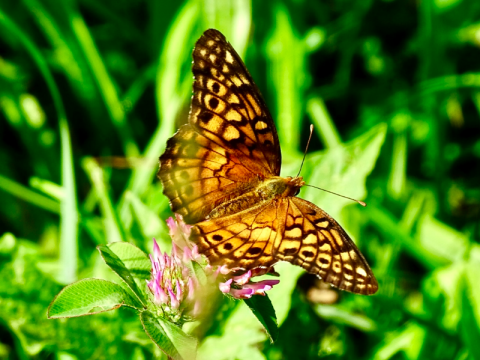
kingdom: Animalia
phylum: Arthropoda
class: Insecta
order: Lepidoptera
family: Nymphalidae
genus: Euptoieta
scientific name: Euptoieta claudia
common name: Variegated Fritillary
